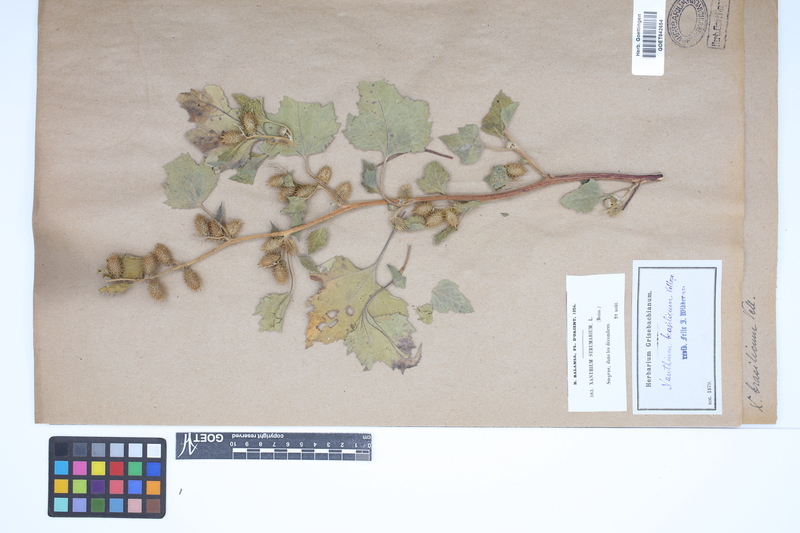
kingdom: Plantae
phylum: Tracheophyta
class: Magnoliopsida
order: Asterales
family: Asteraceae
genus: Xanthium
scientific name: Xanthium strumarium
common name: Rough cocklebur
